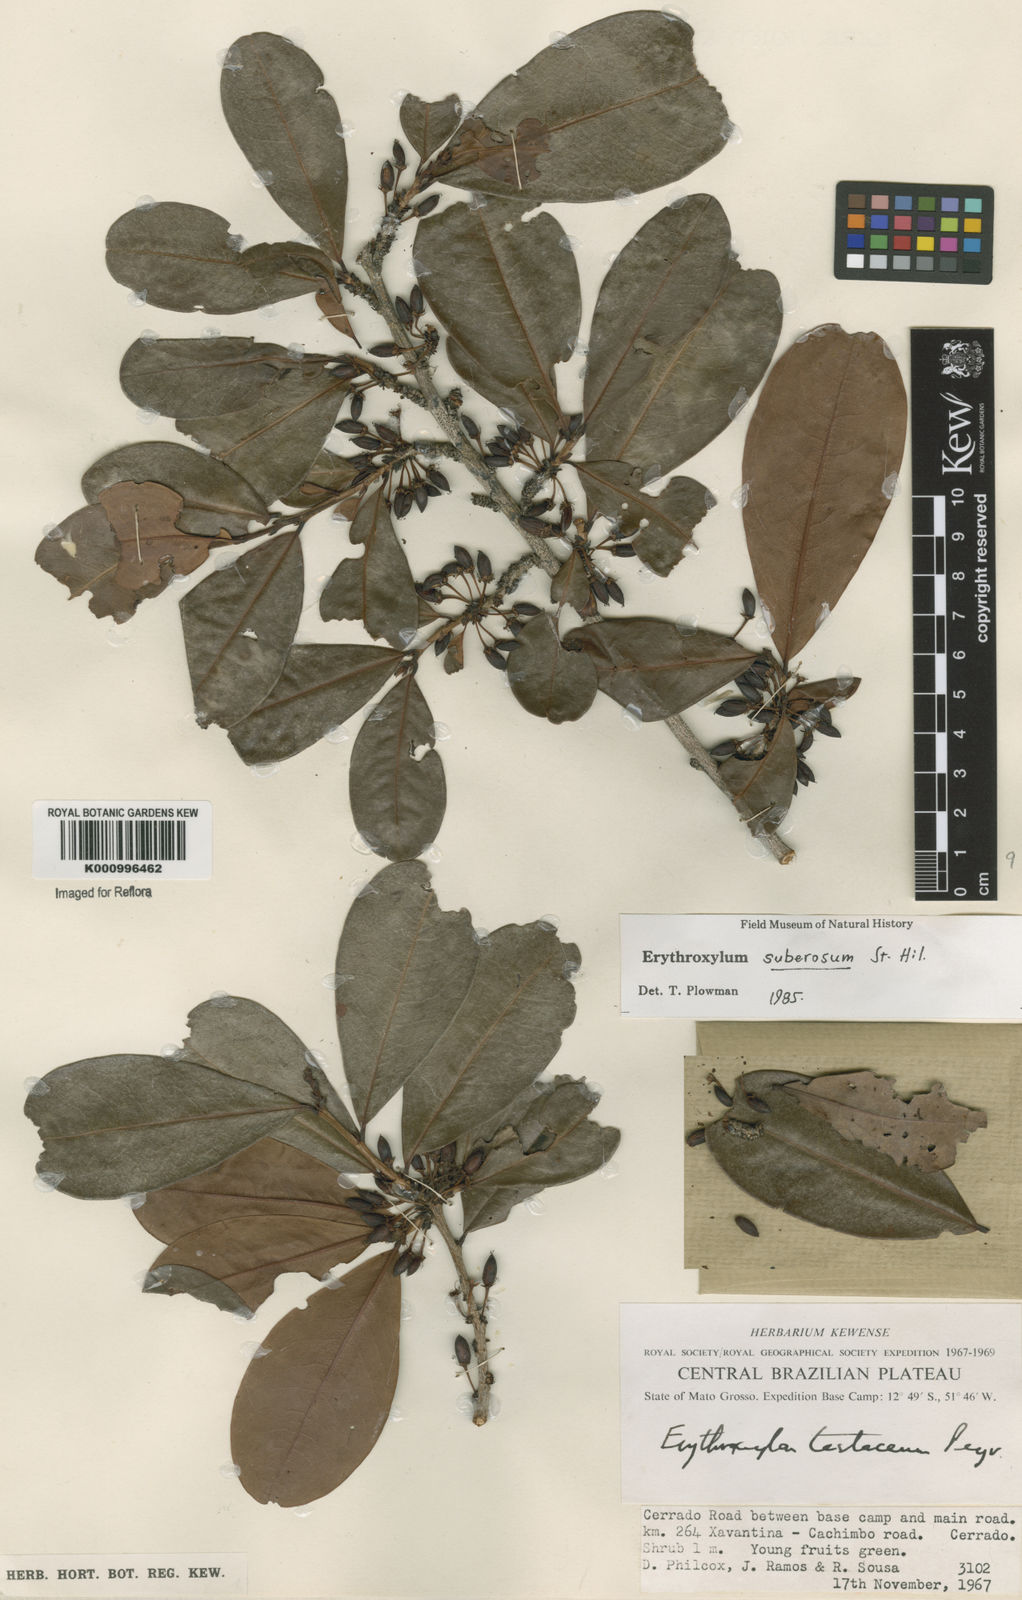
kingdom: Plantae
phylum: Tracheophyta
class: Magnoliopsida
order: Malpighiales
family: Erythroxylaceae
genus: Erythroxylum
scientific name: Erythroxylum suberosum
